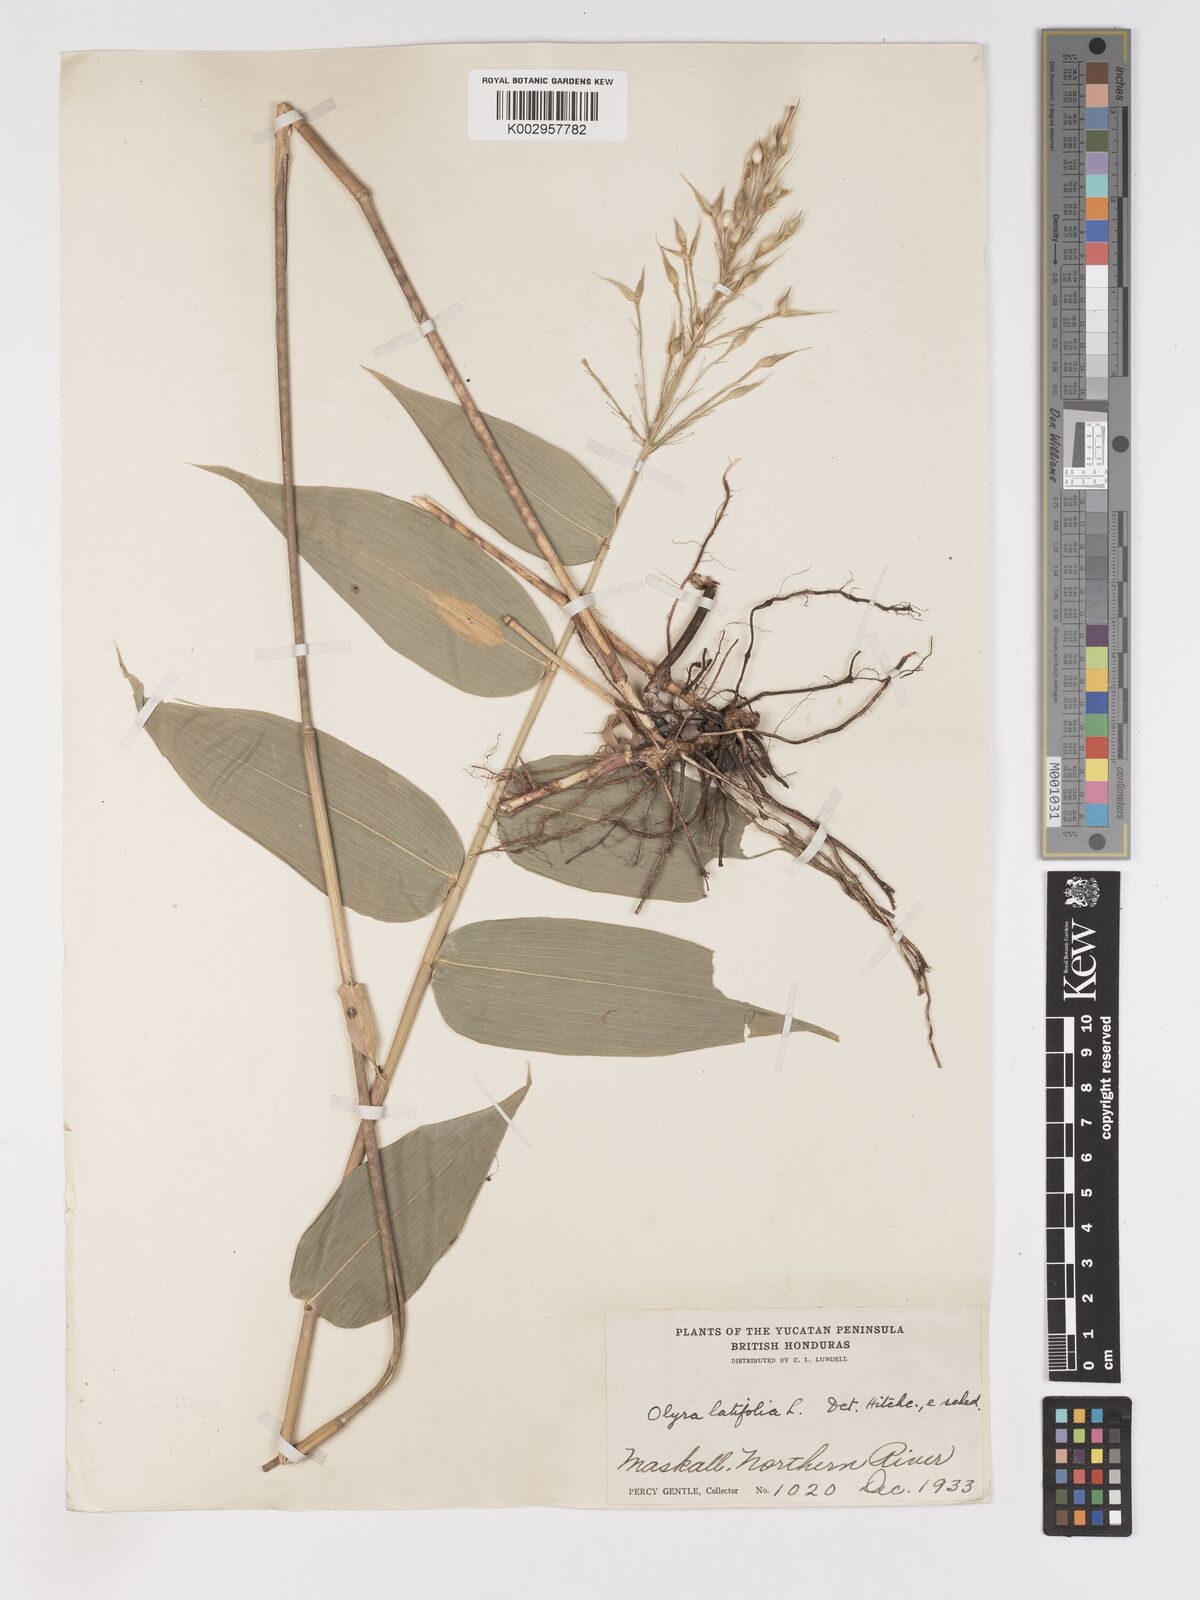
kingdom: Plantae
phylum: Tracheophyta
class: Liliopsida
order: Poales
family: Poaceae
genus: Olyra
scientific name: Olyra latifolia
